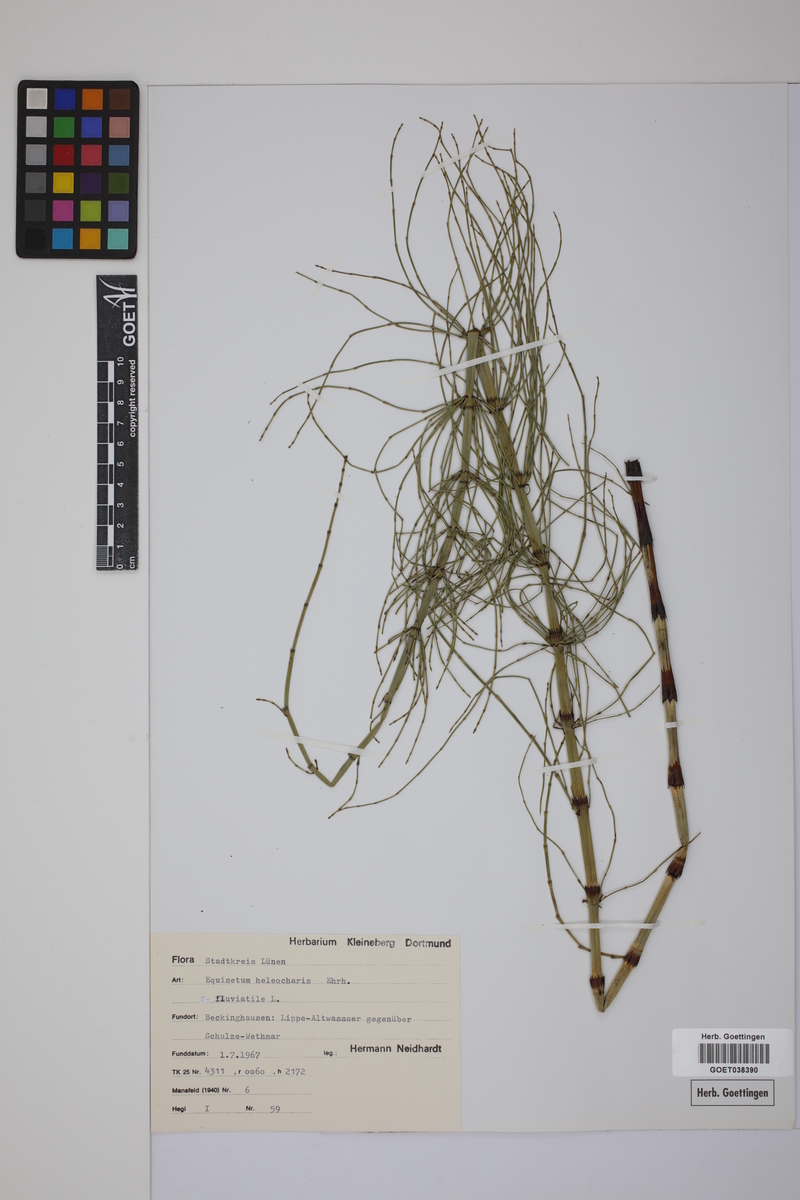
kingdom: Plantae
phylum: Tracheophyta
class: Polypodiopsida
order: Equisetales
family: Equisetaceae
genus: Equisetum
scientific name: Equisetum fluviatile
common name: Water horsetail
